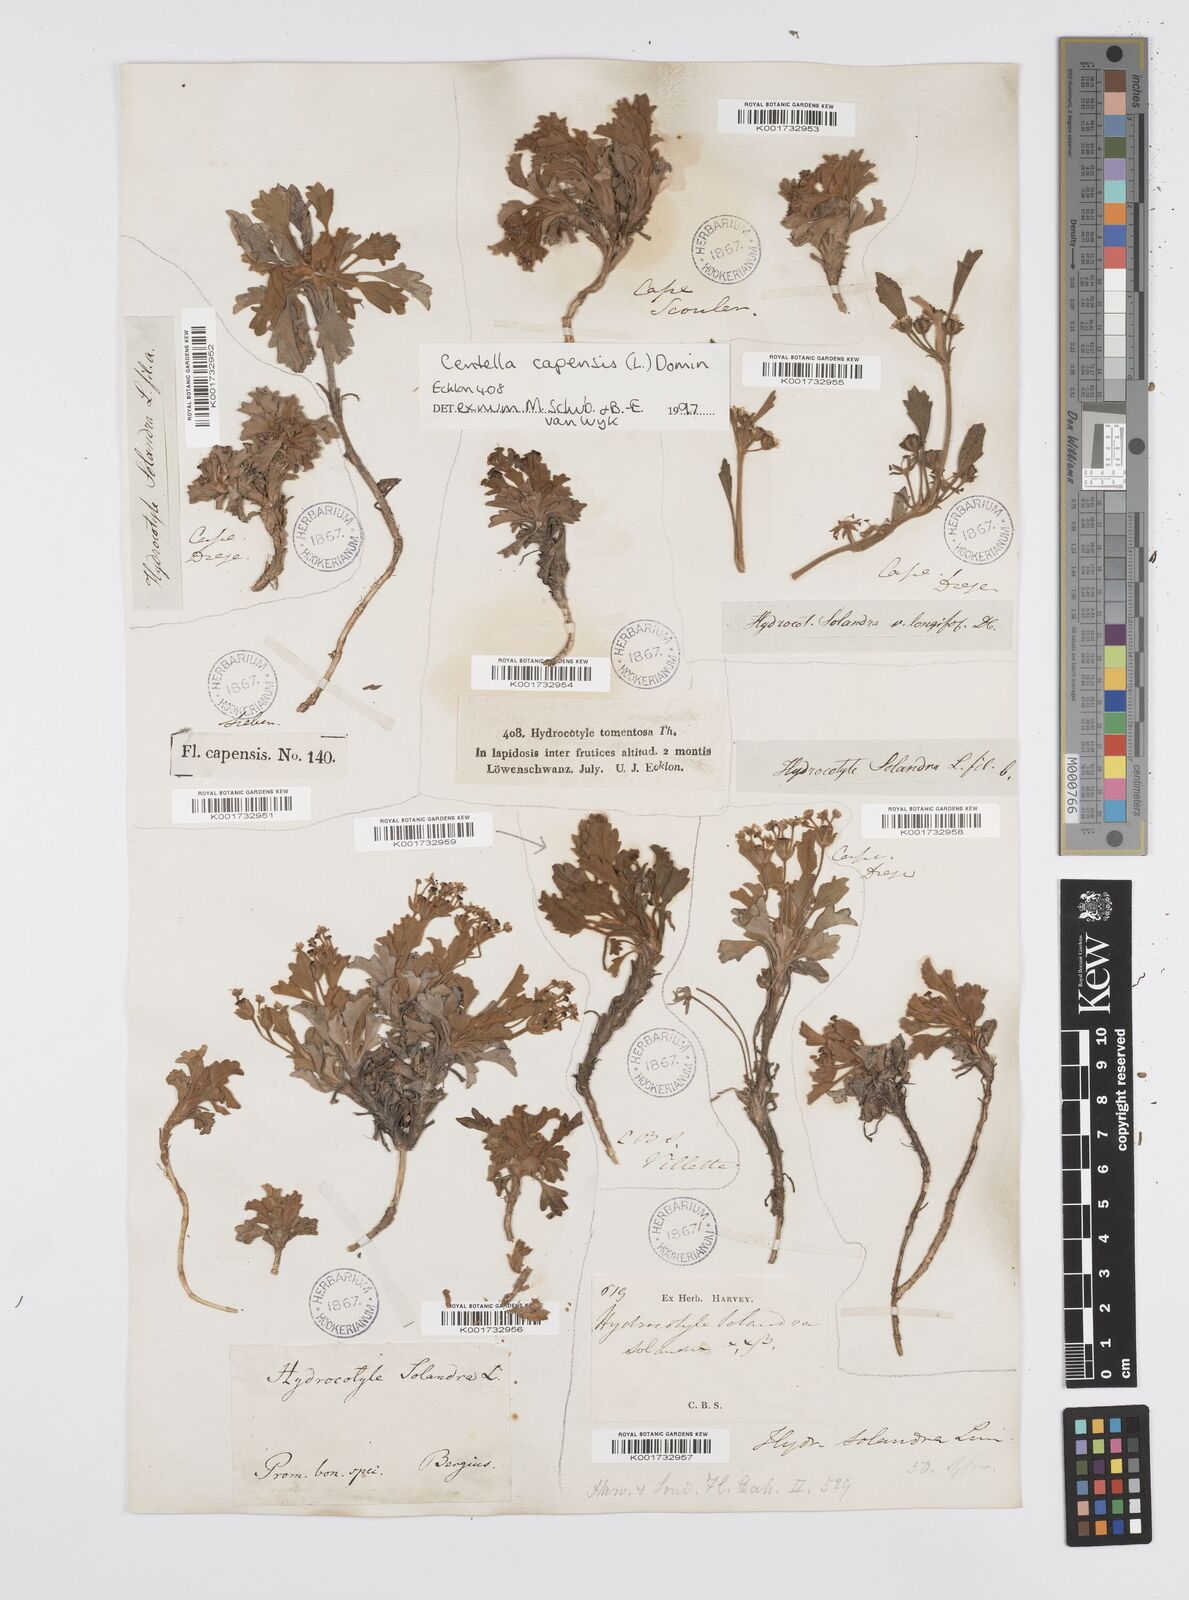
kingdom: Plantae
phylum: Tracheophyta
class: Magnoliopsida
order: Apiales
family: Apiaceae
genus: Centella
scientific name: Centella capensis
